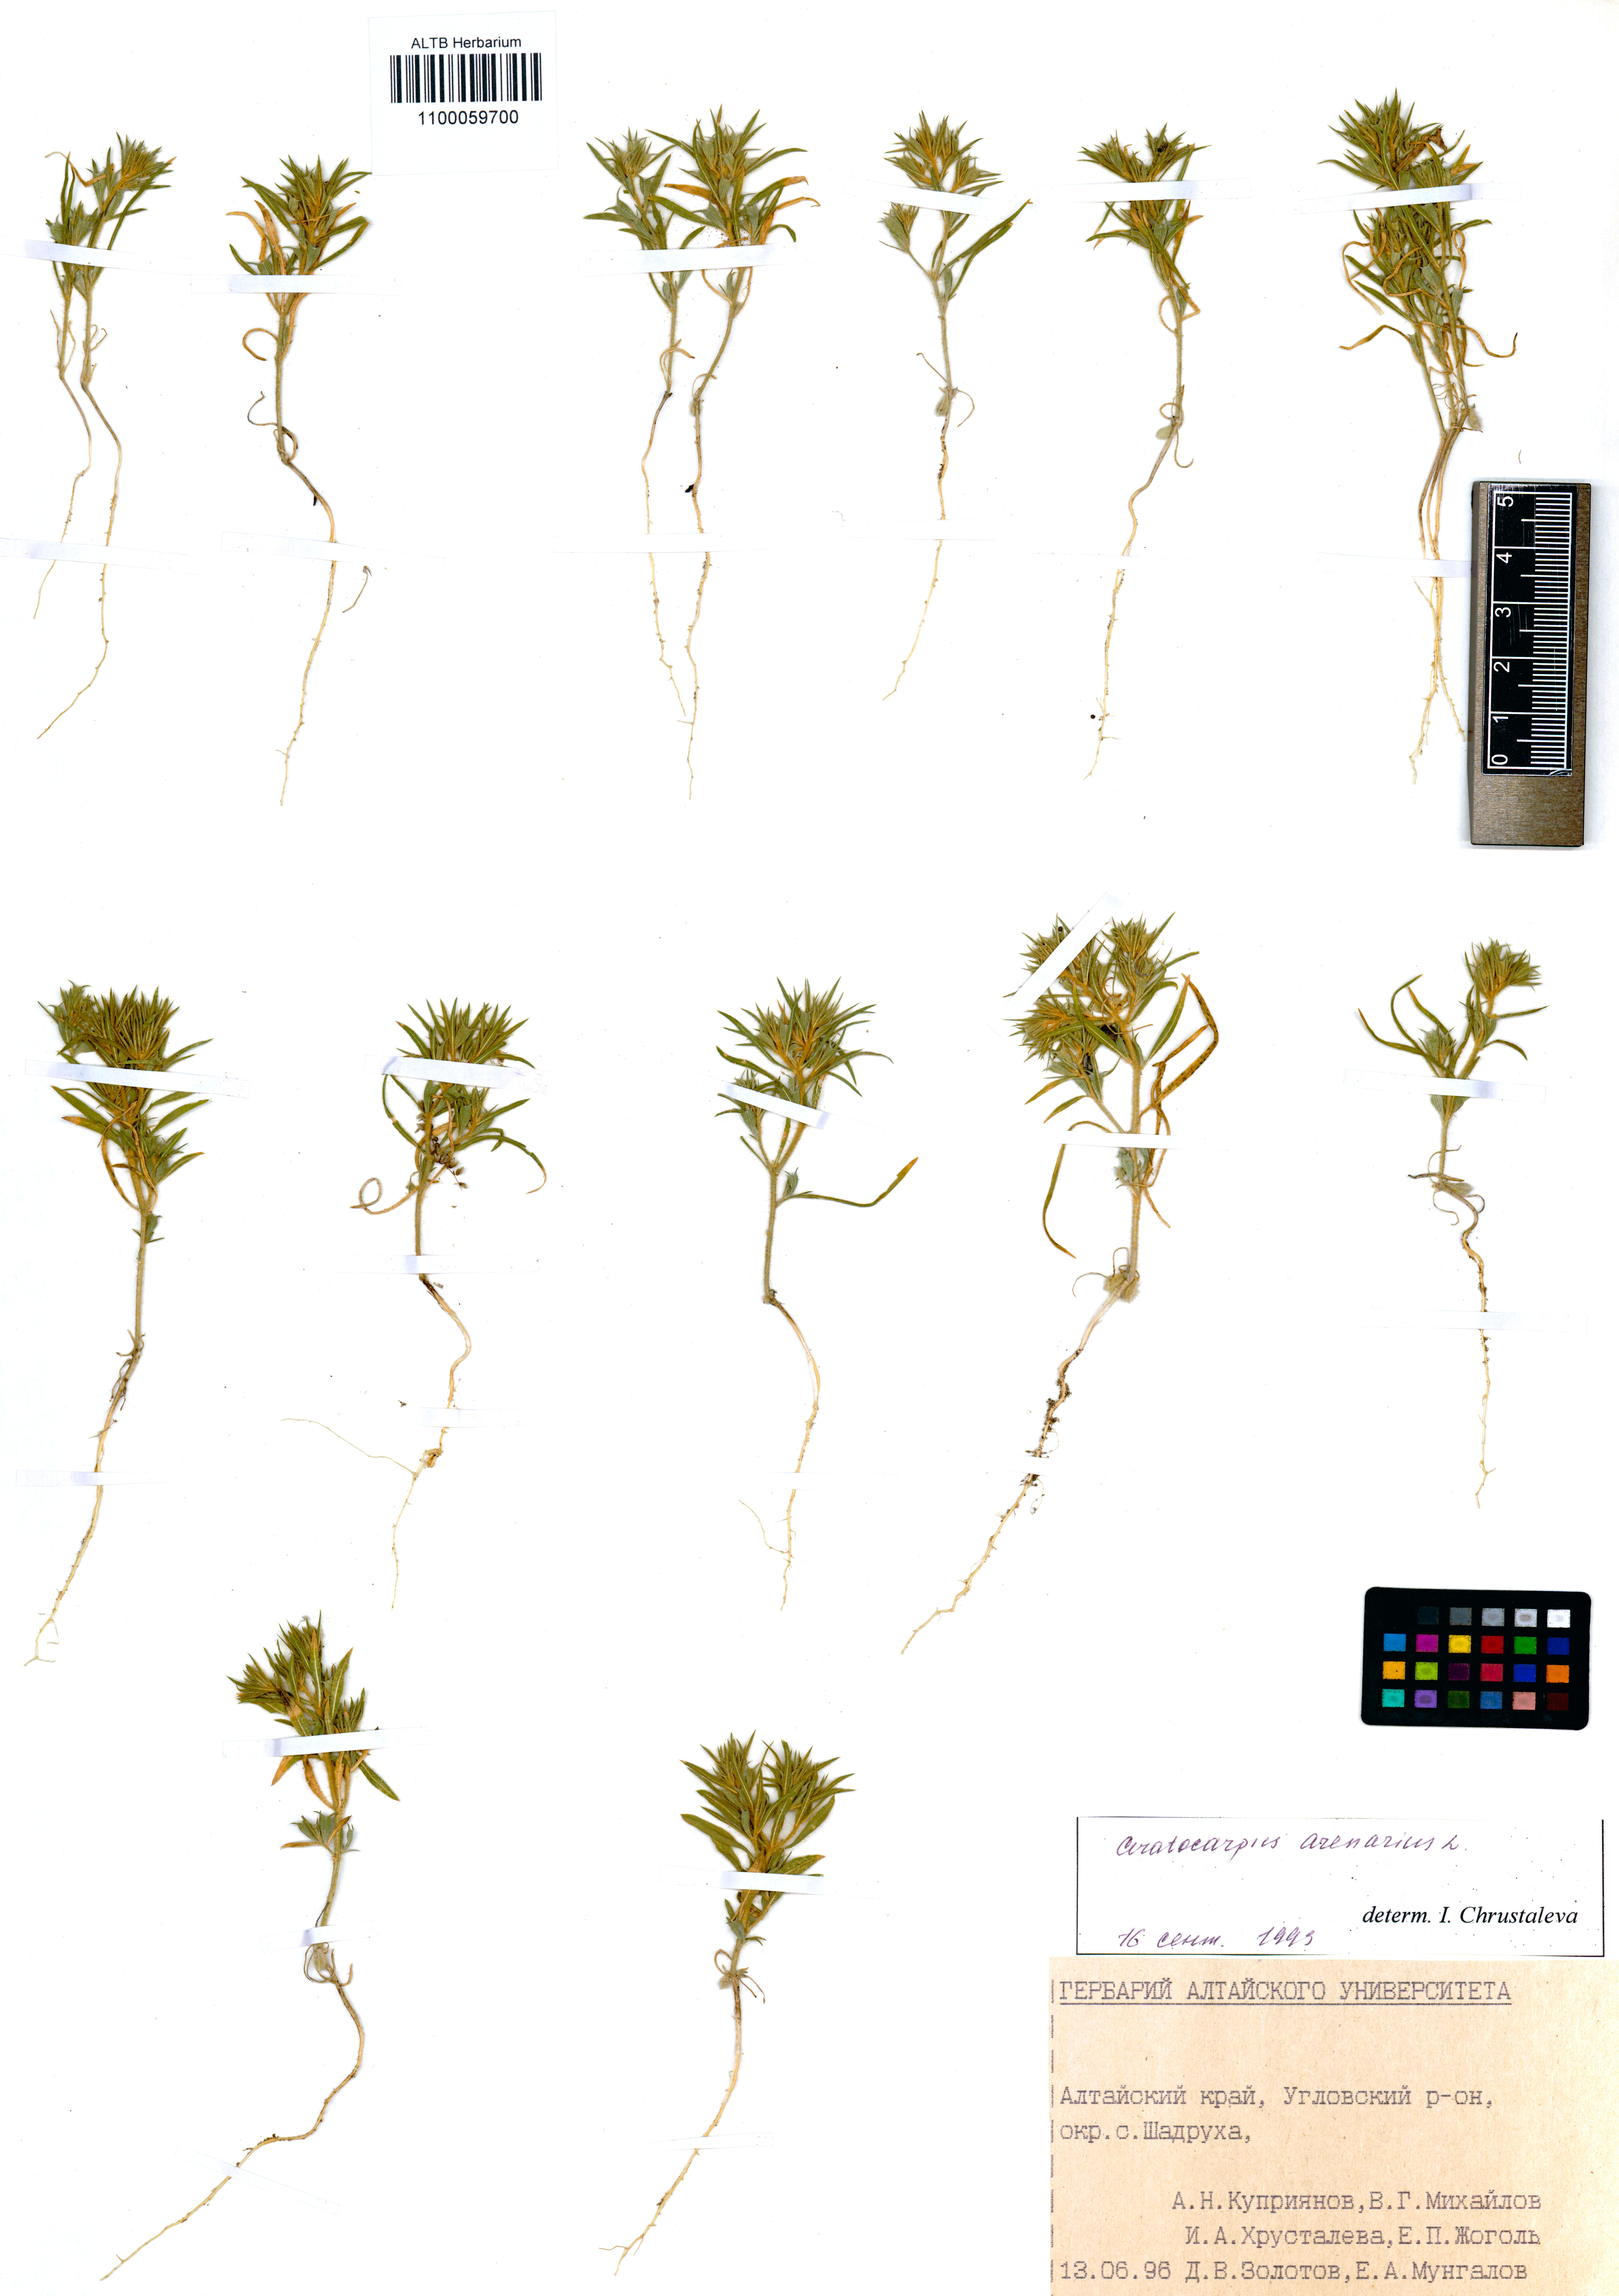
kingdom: Plantae
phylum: Tracheophyta
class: Magnoliopsida
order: Caryophyllales
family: Amaranthaceae
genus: Ceratocarpus
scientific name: Ceratocarpus arenarius
